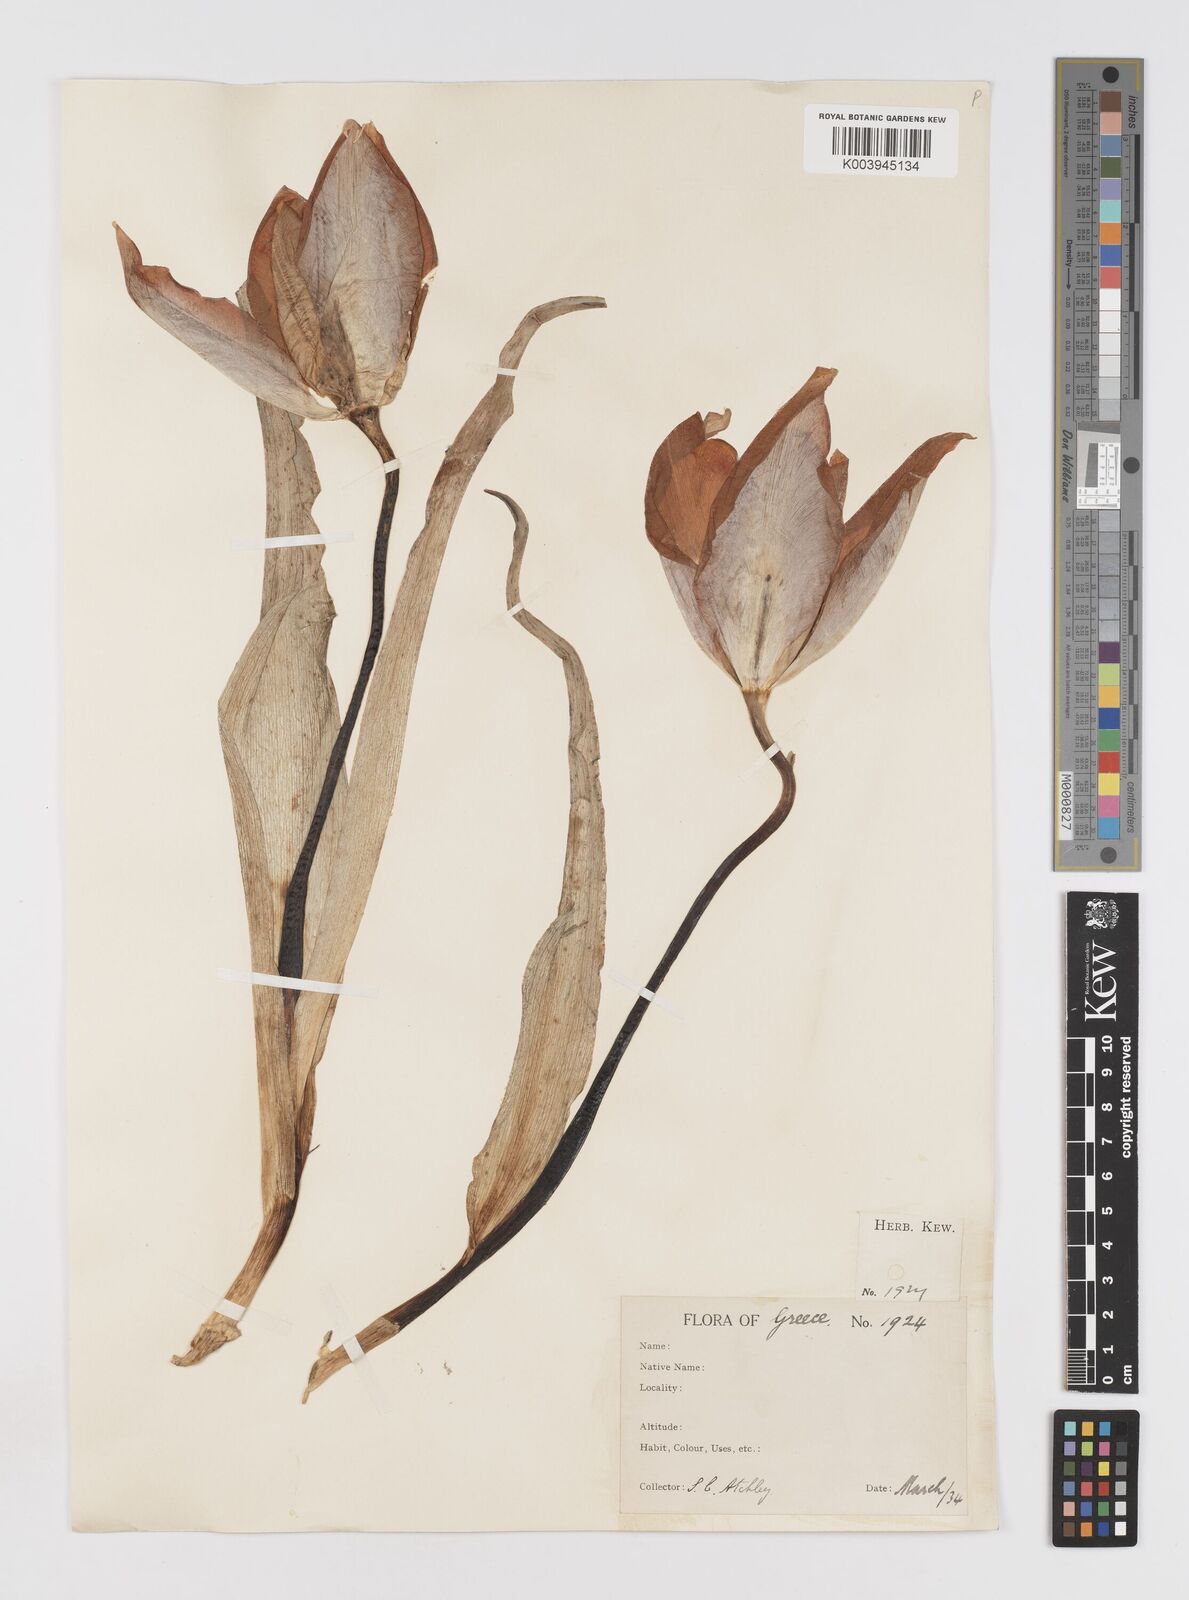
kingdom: Plantae
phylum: Tracheophyta
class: Liliopsida
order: Liliales
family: Liliaceae
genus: Tulipa
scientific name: Tulipa
